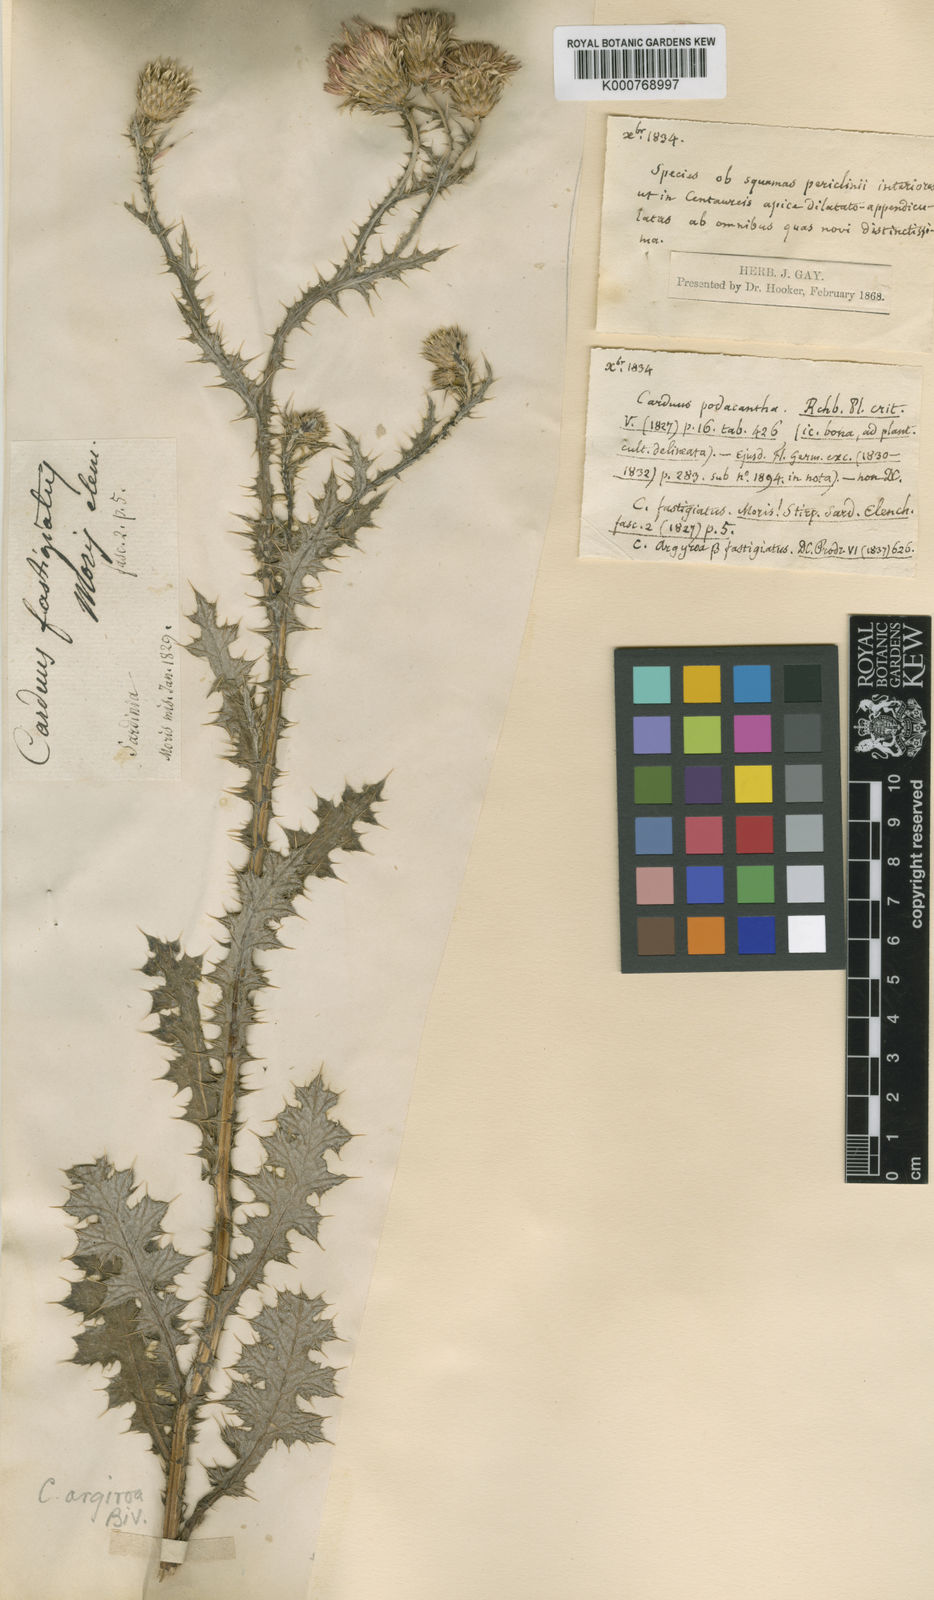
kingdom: Plantae
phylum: Tracheophyta
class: Magnoliopsida
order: Asterales
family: Asteraceae
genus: Carduus
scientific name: Carduus argyroa
